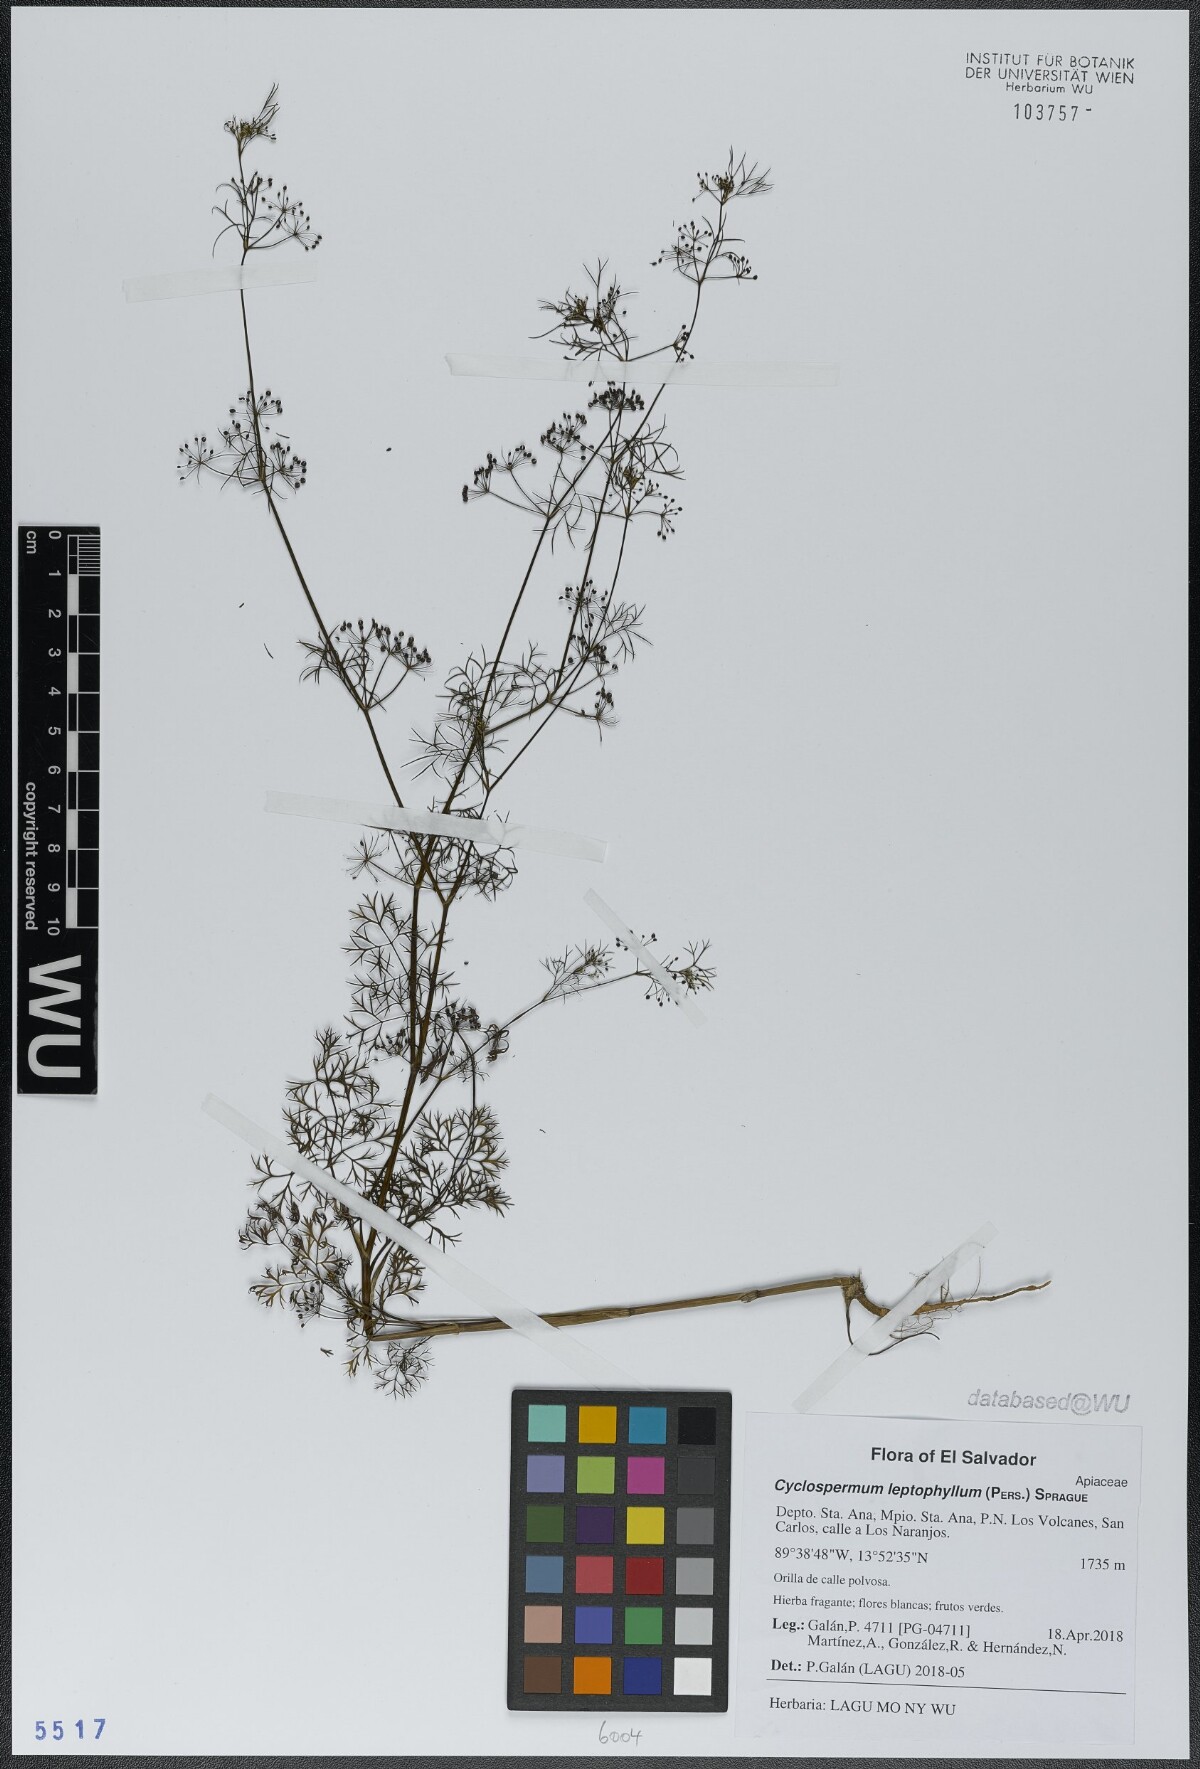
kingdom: Plantae
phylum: Tracheophyta
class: Magnoliopsida
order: Apiales
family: Apiaceae
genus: Cyclospermum
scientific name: Cyclospermum leptophyllum
